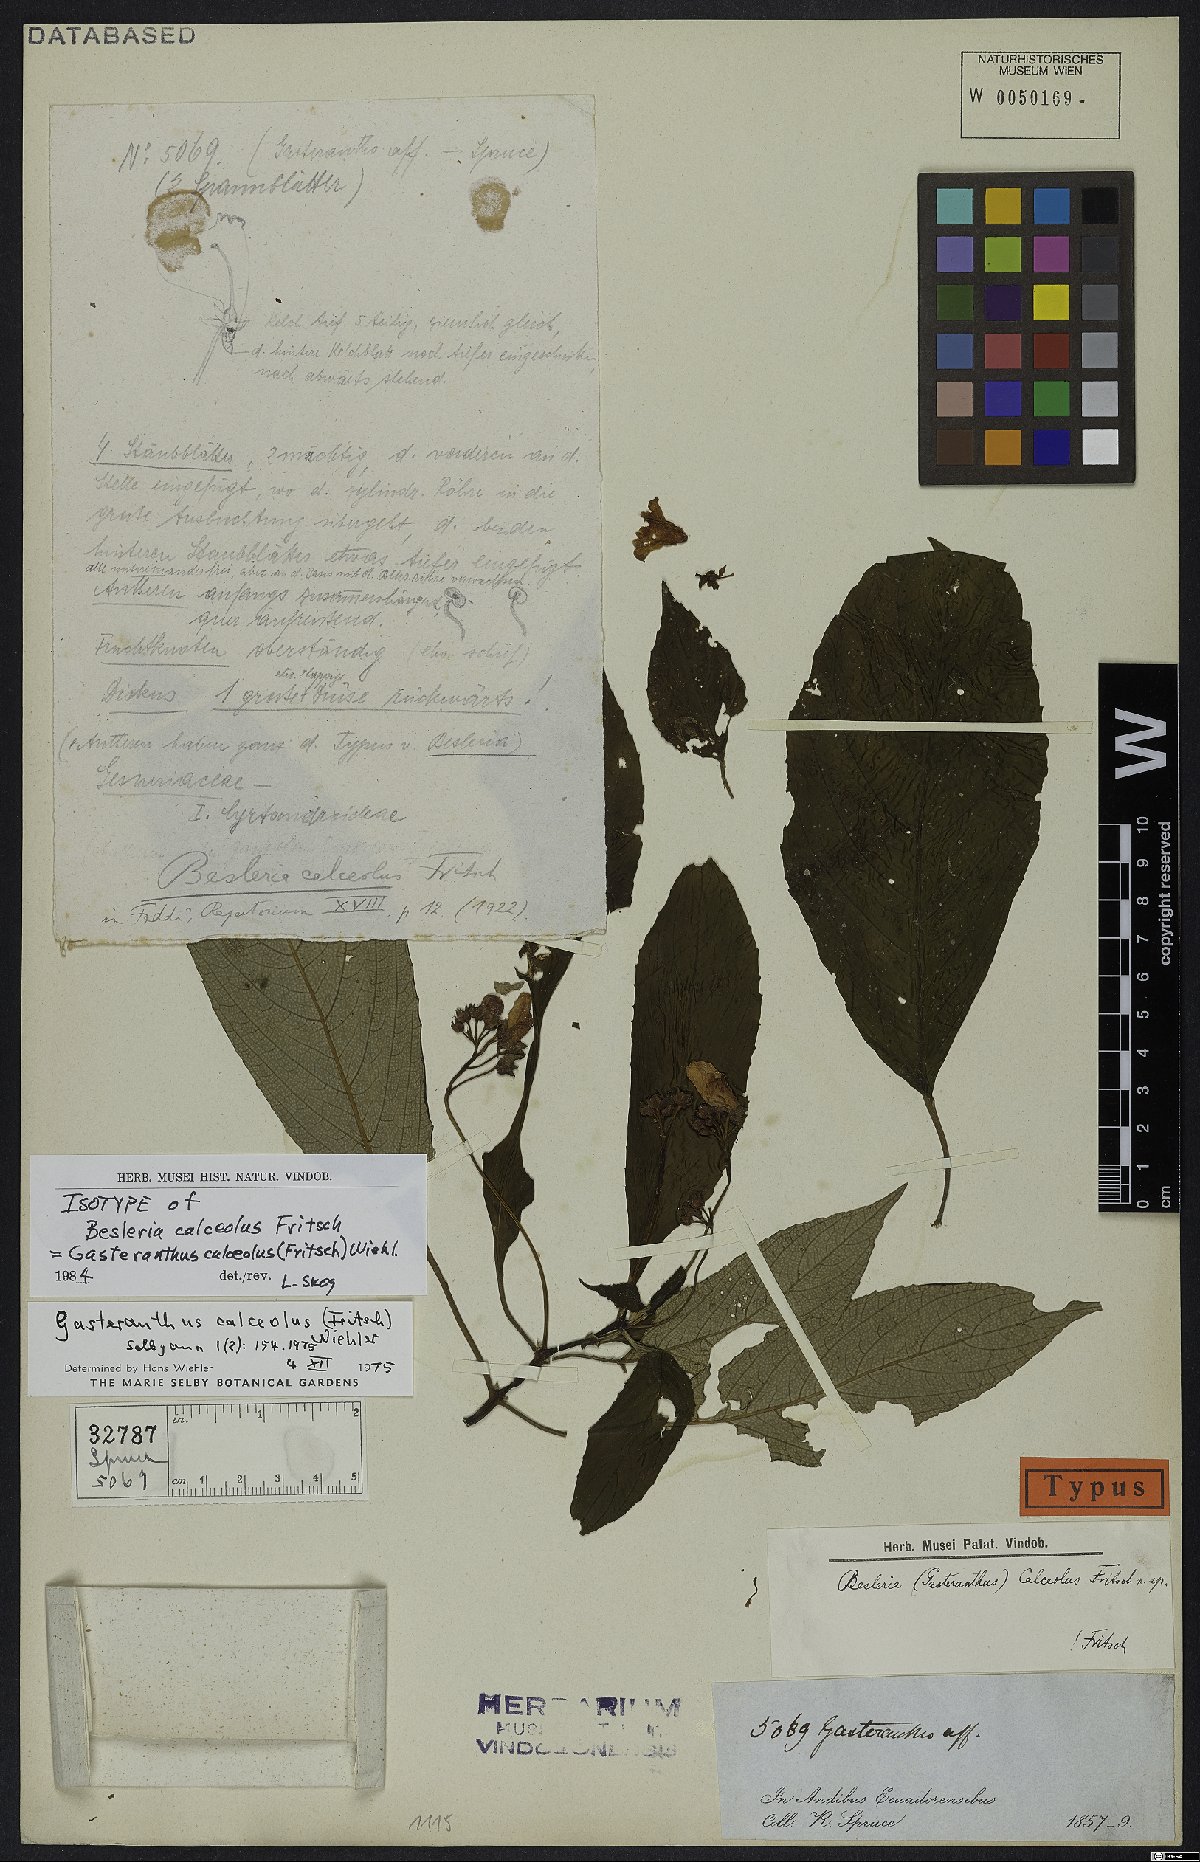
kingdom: Plantae
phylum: Tracheophyta
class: Magnoliopsida
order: Lamiales
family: Gesneriaceae
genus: Gasteranthus
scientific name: Gasteranthus calcaratus
